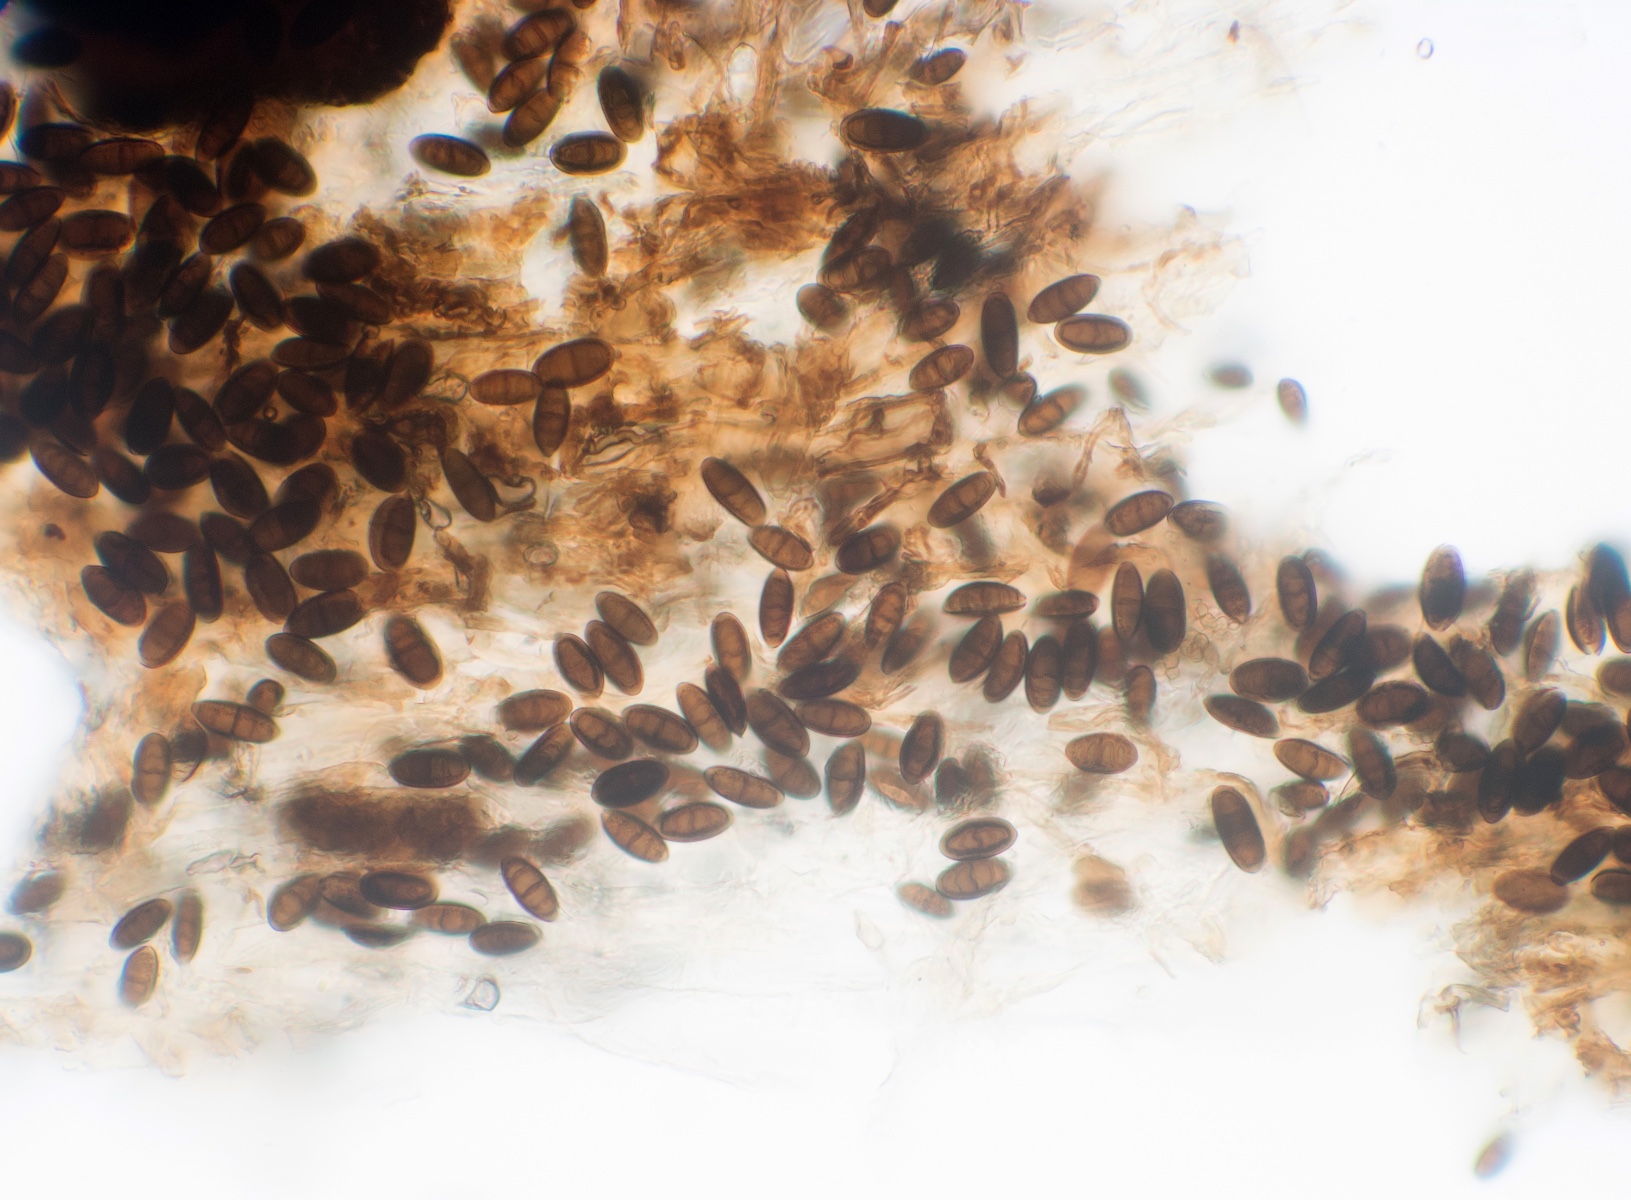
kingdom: Fungi
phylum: Ascomycota
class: Sordariomycetes
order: Amphisphaeriales
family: Amphisphaeriaceae
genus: Chitonospora
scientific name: Chitonospora ammophila
